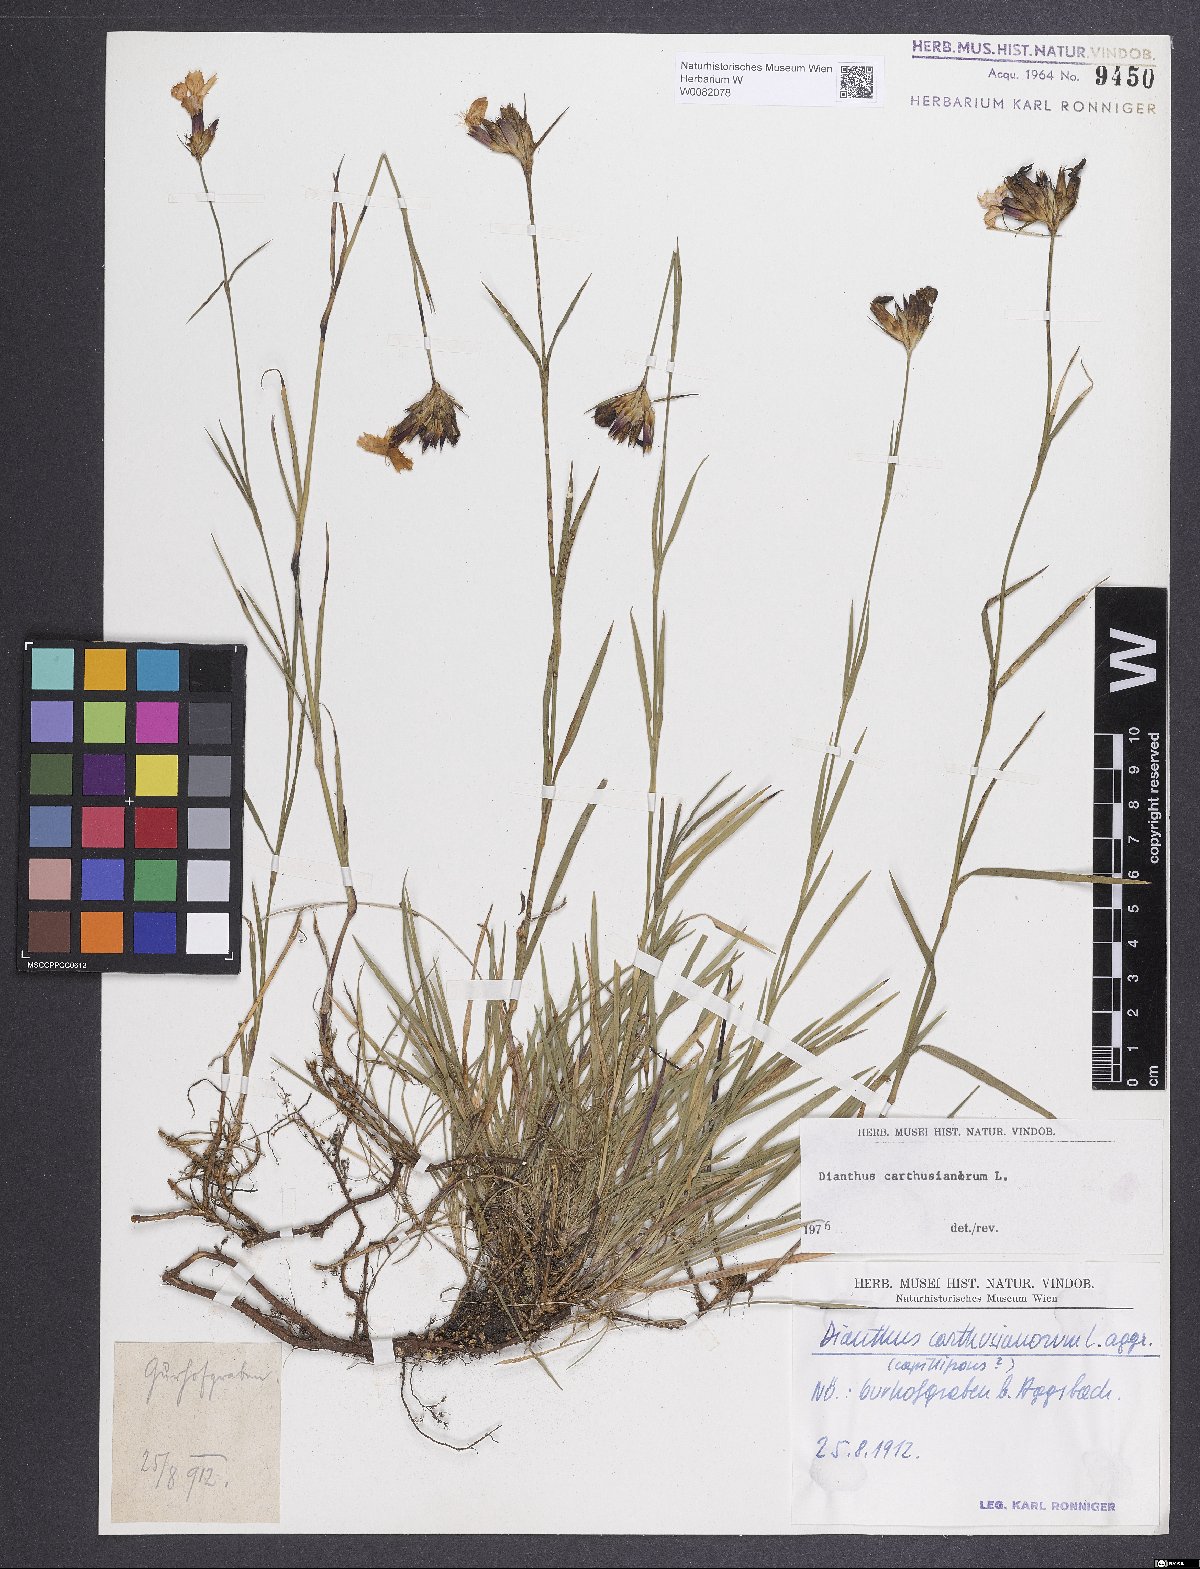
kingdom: Plantae
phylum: Tracheophyta
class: Magnoliopsida
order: Caryophyllales
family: Caryophyllaceae
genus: Dianthus
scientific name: Dianthus carthusianorum
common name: Carthusian pink
